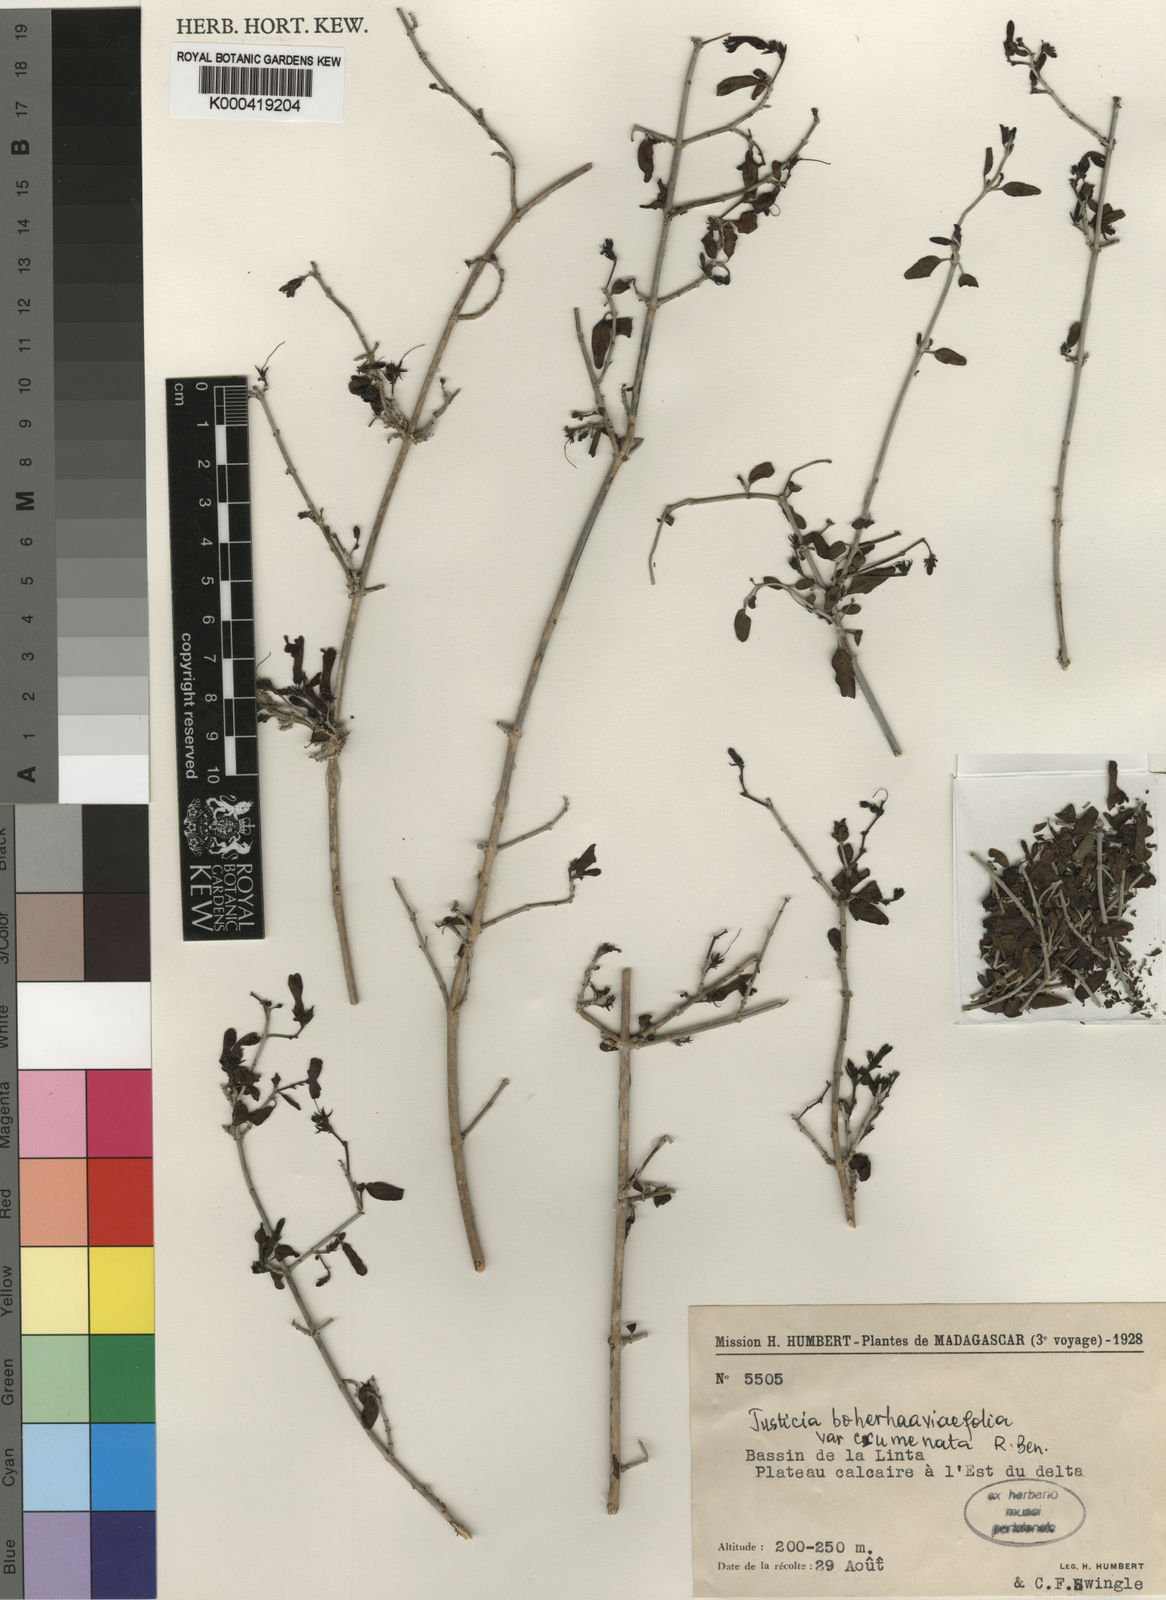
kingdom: Plantae
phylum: Tracheophyta
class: Magnoliopsida
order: Lamiales
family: Acanthaceae
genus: Justicia
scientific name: Justicia
